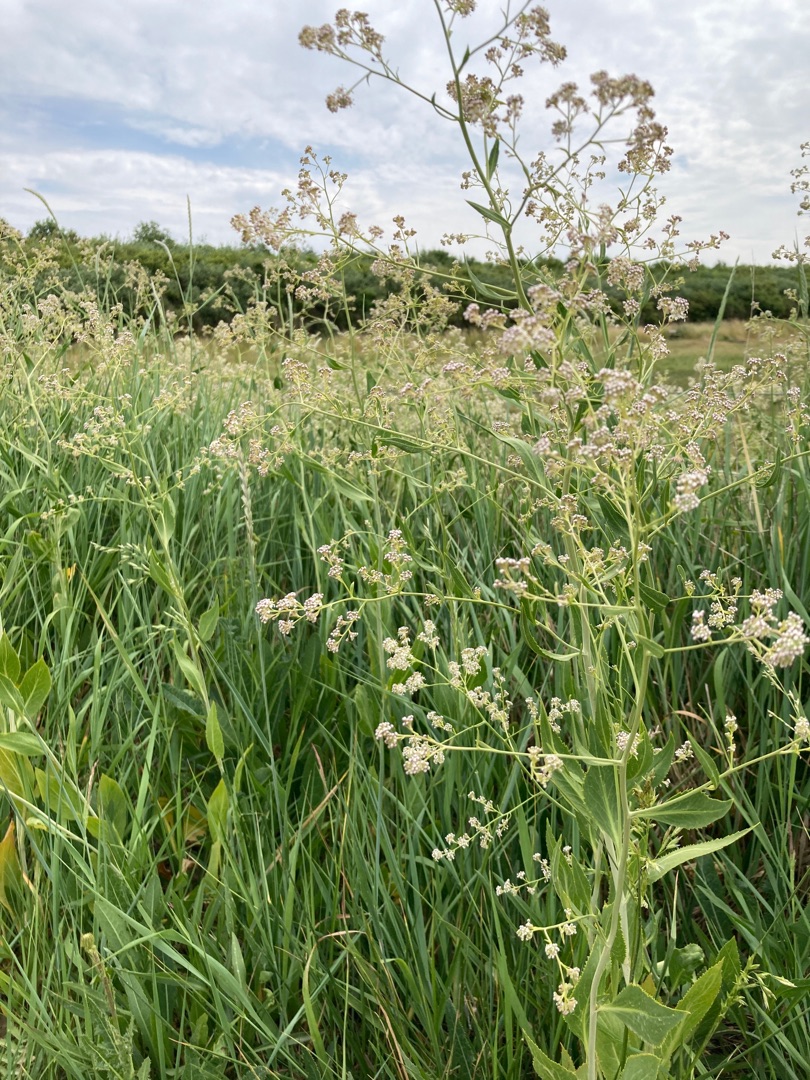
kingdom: Plantae
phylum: Tracheophyta
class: Magnoliopsida
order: Brassicales
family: Brassicaceae
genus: Lepidium
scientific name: Lepidium latifolium
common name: Strand-karse
